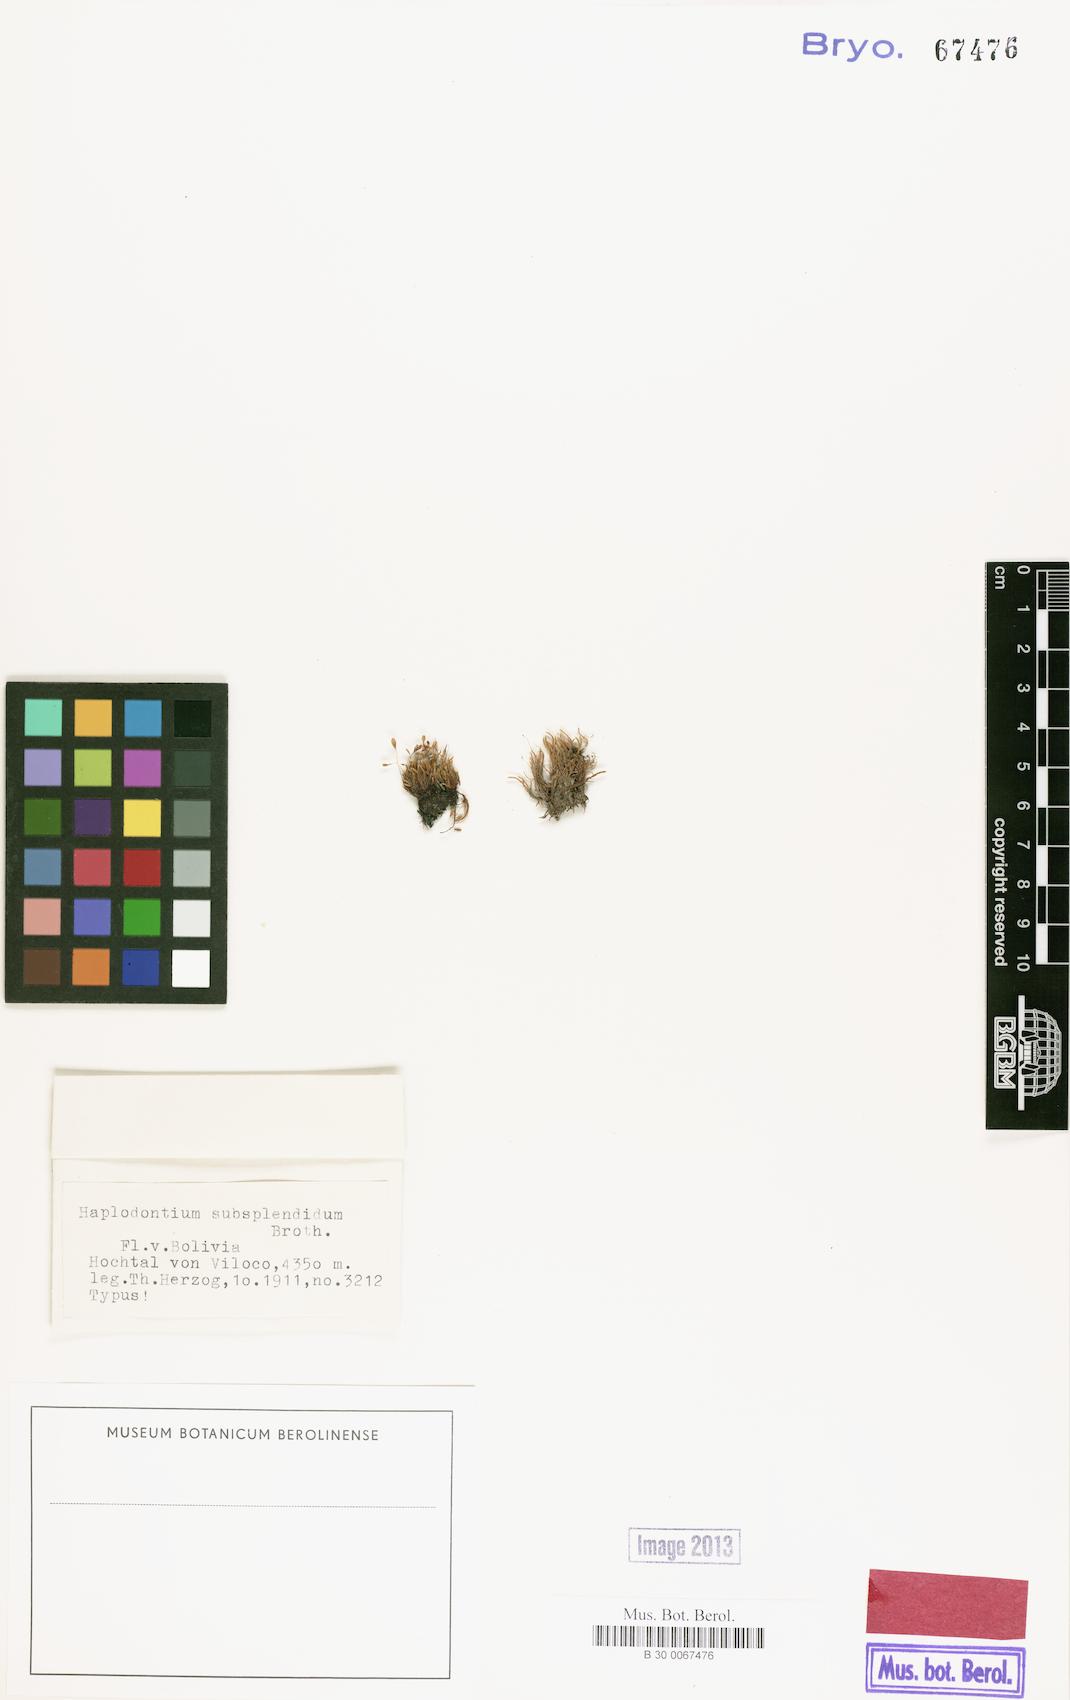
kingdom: Plantae
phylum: Bryophyta
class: Bryopsida
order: Bryales
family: Bryaceae
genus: Haplodontium
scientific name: Haplodontium subsplendidum
